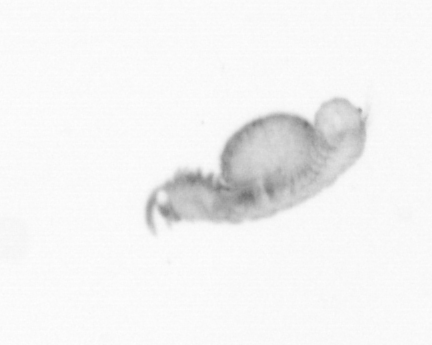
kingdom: Animalia
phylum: Annelida
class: Polychaeta
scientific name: Polychaeta
